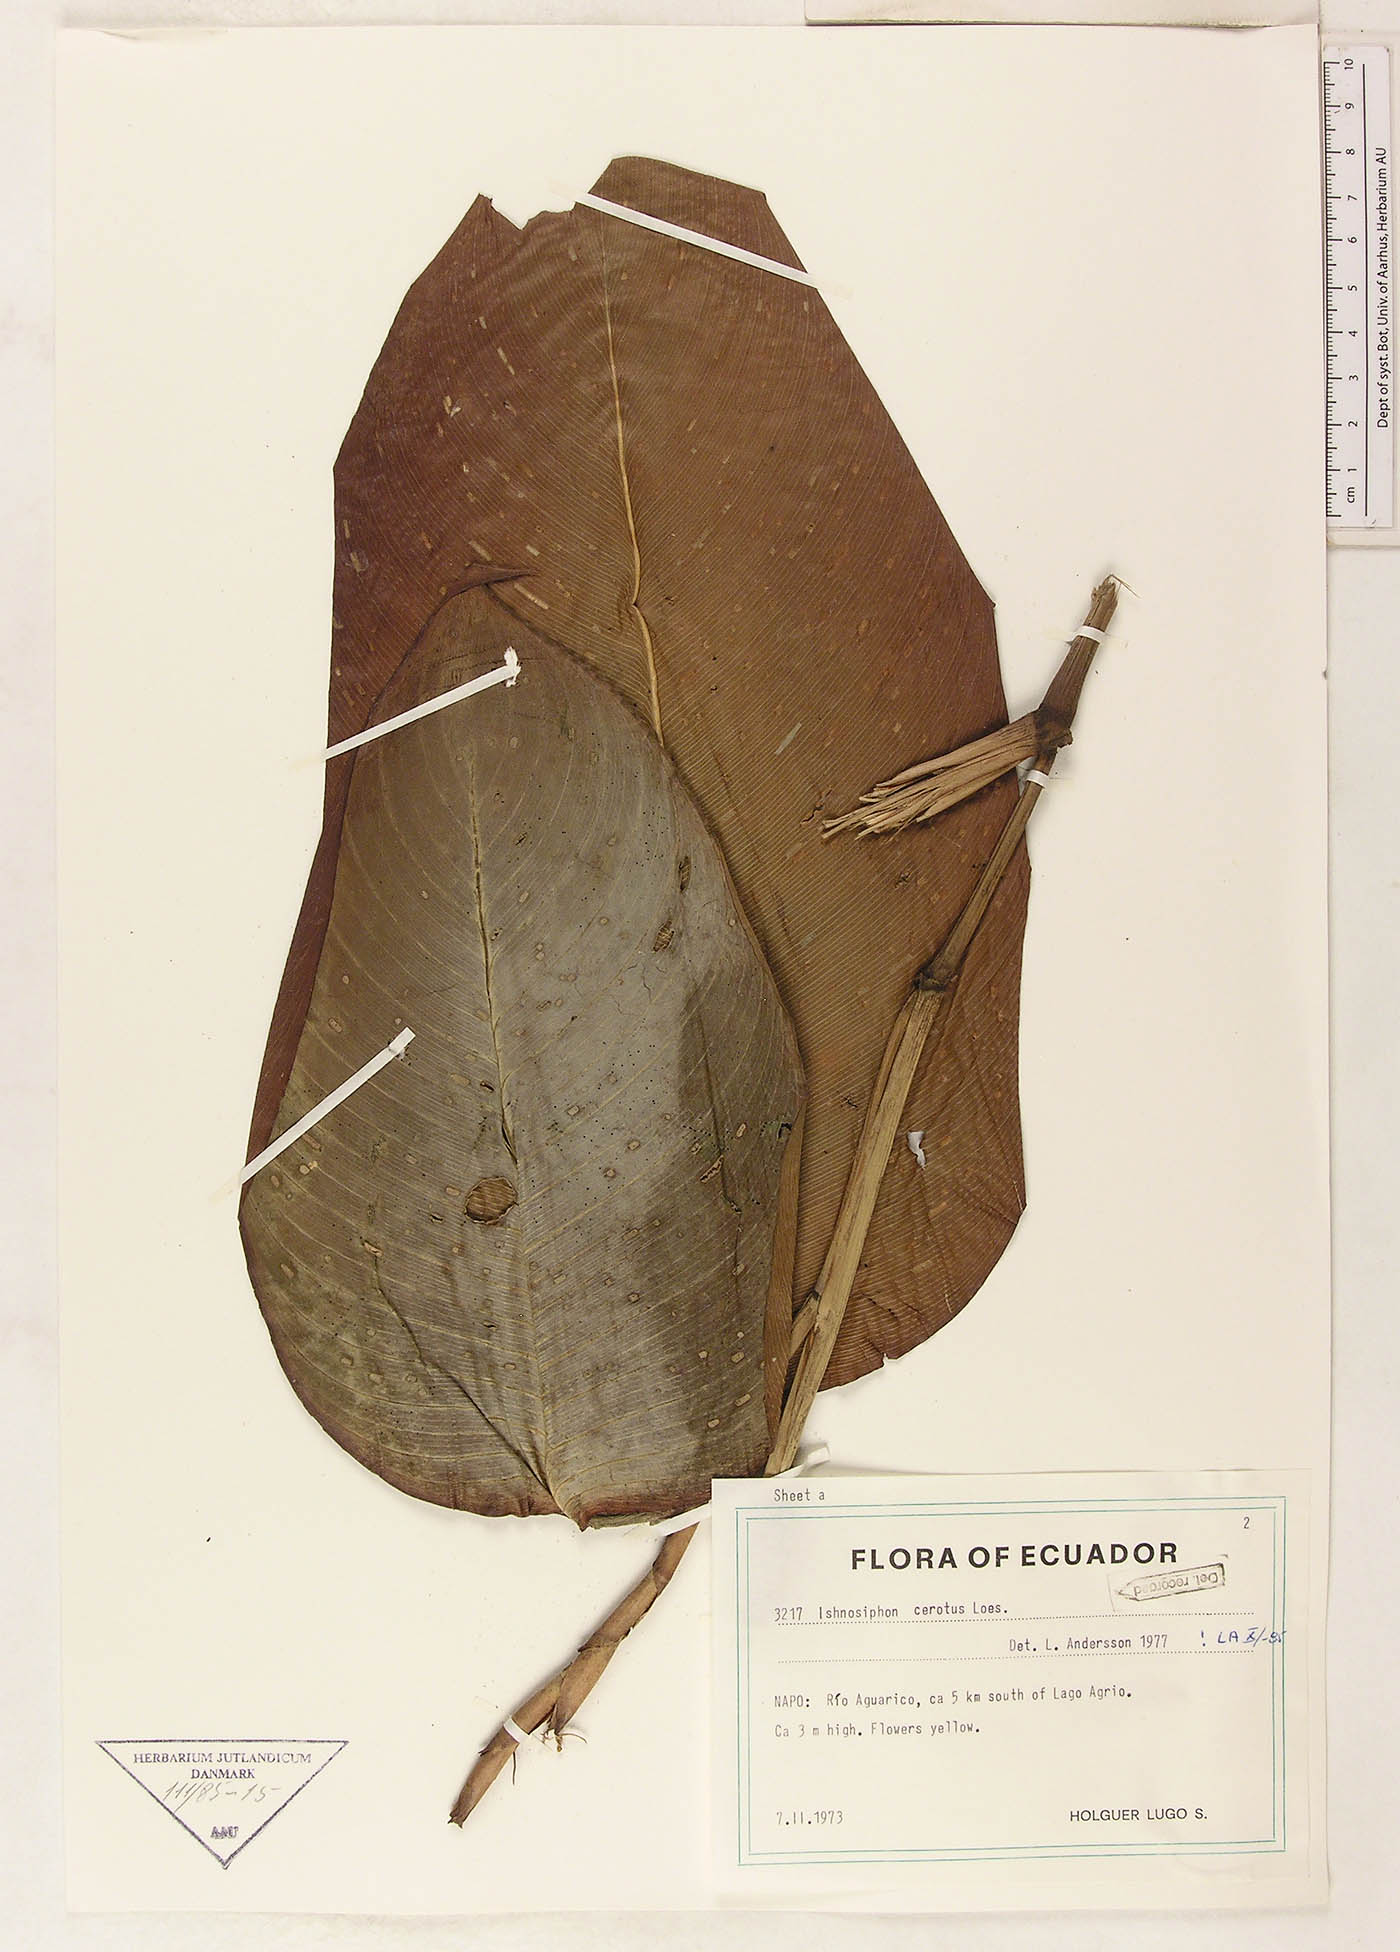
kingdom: Plantae
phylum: Tracheophyta
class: Liliopsida
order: Zingiberales
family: Marantaceae
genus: Ischnosiphon
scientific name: Ischnosiphon cerotus
